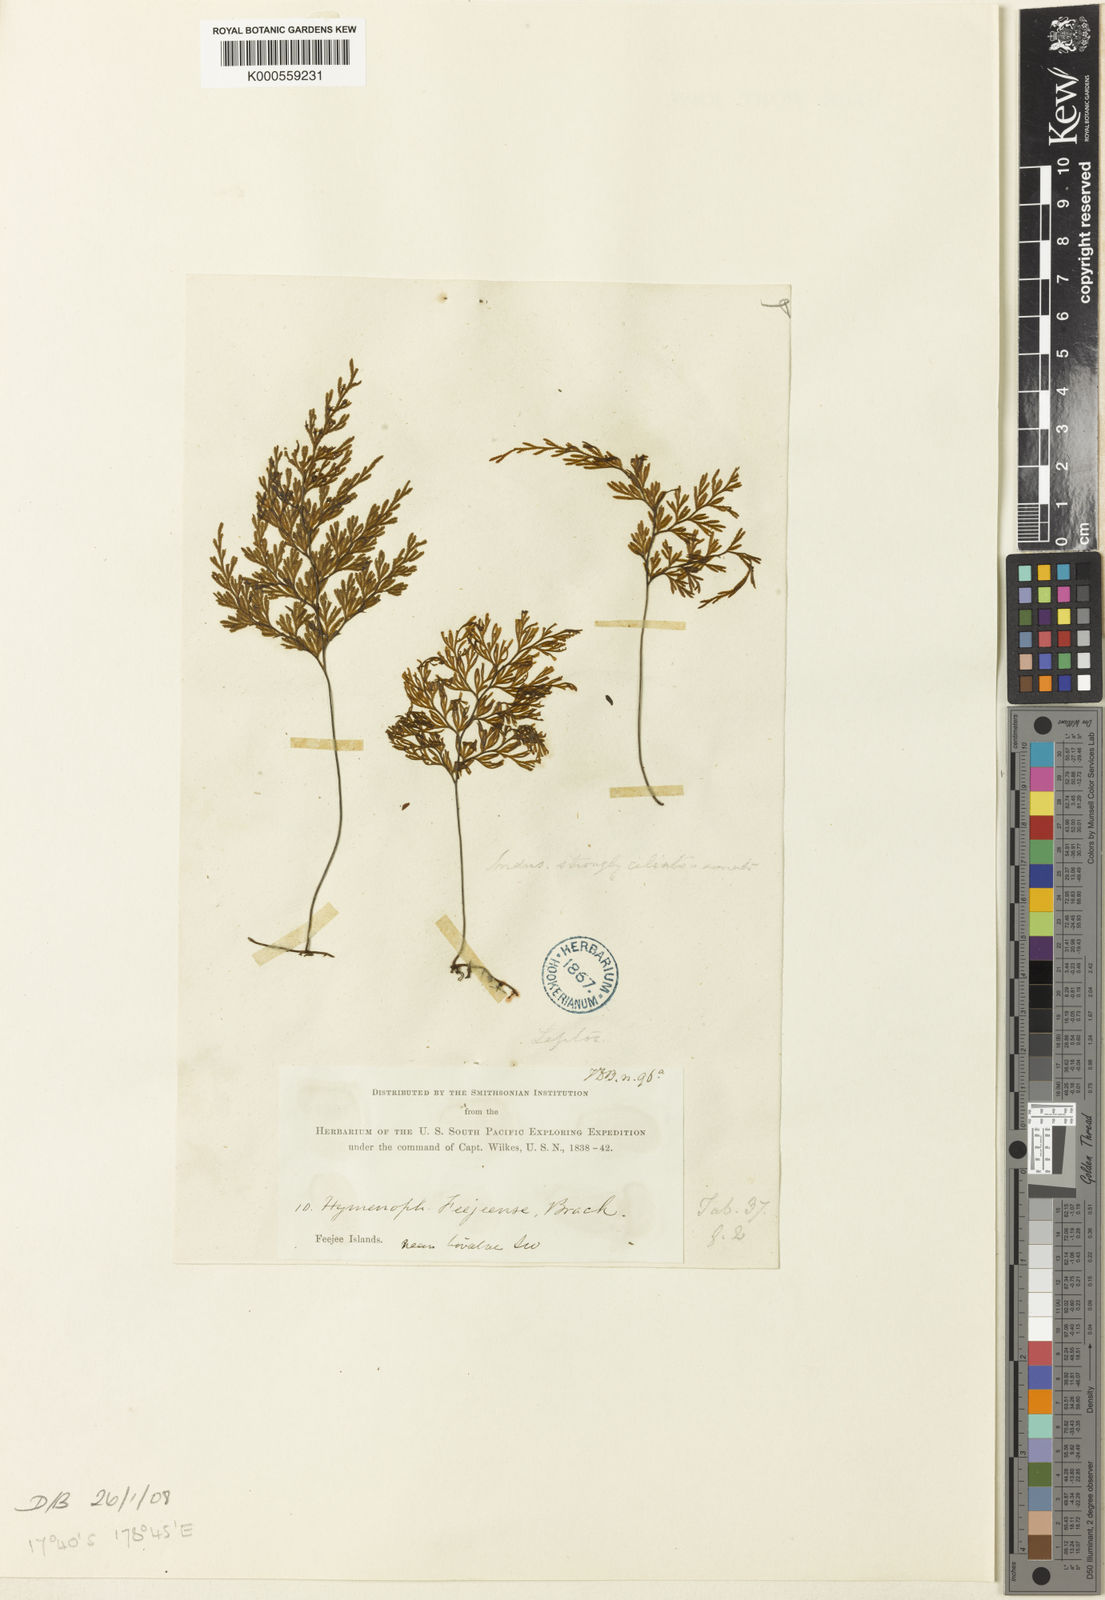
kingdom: Plantae
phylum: Tracheophyta
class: Polypodiopsida
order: Hymenophyllales
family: Hymenophyllaceae
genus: Hymenophyllum
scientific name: Hymenophyllum feejeense
